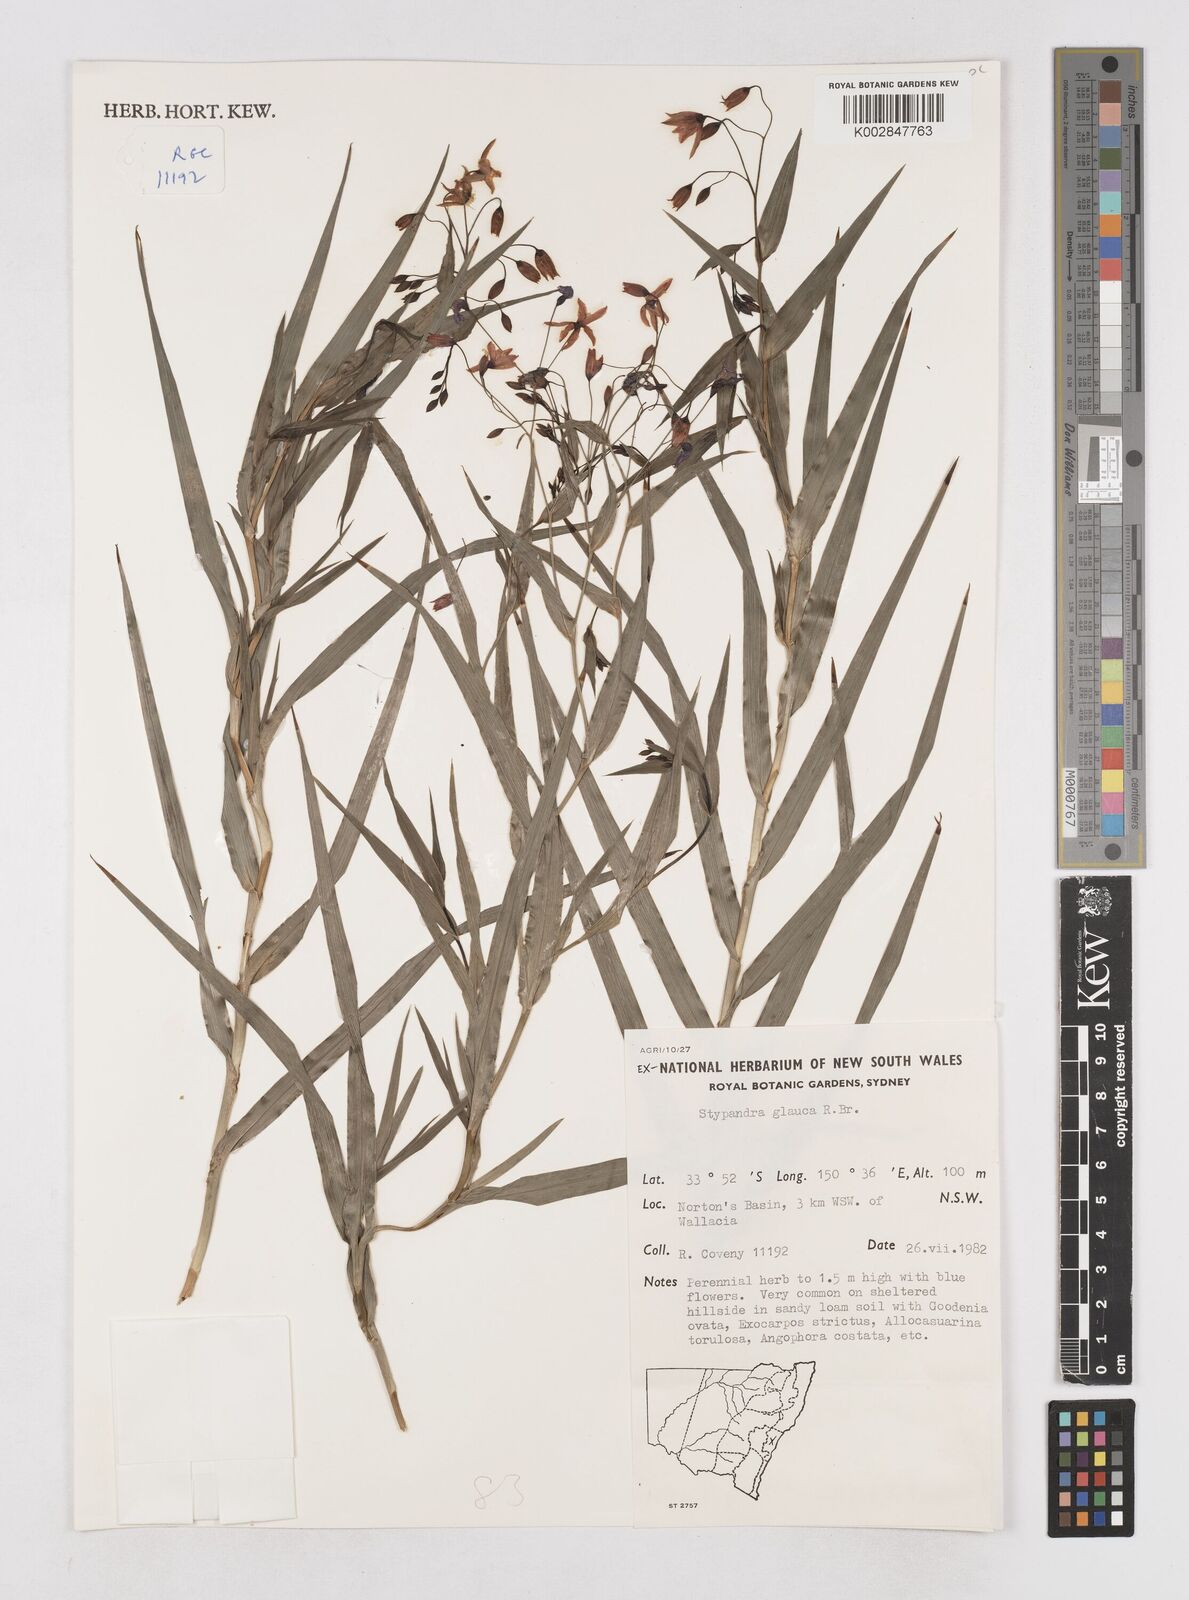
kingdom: Plantae
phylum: Tracheophyta
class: Liliopsida
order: Asparagales
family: Asphodelaceae
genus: Stypandra
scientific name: Stypandra glauca
